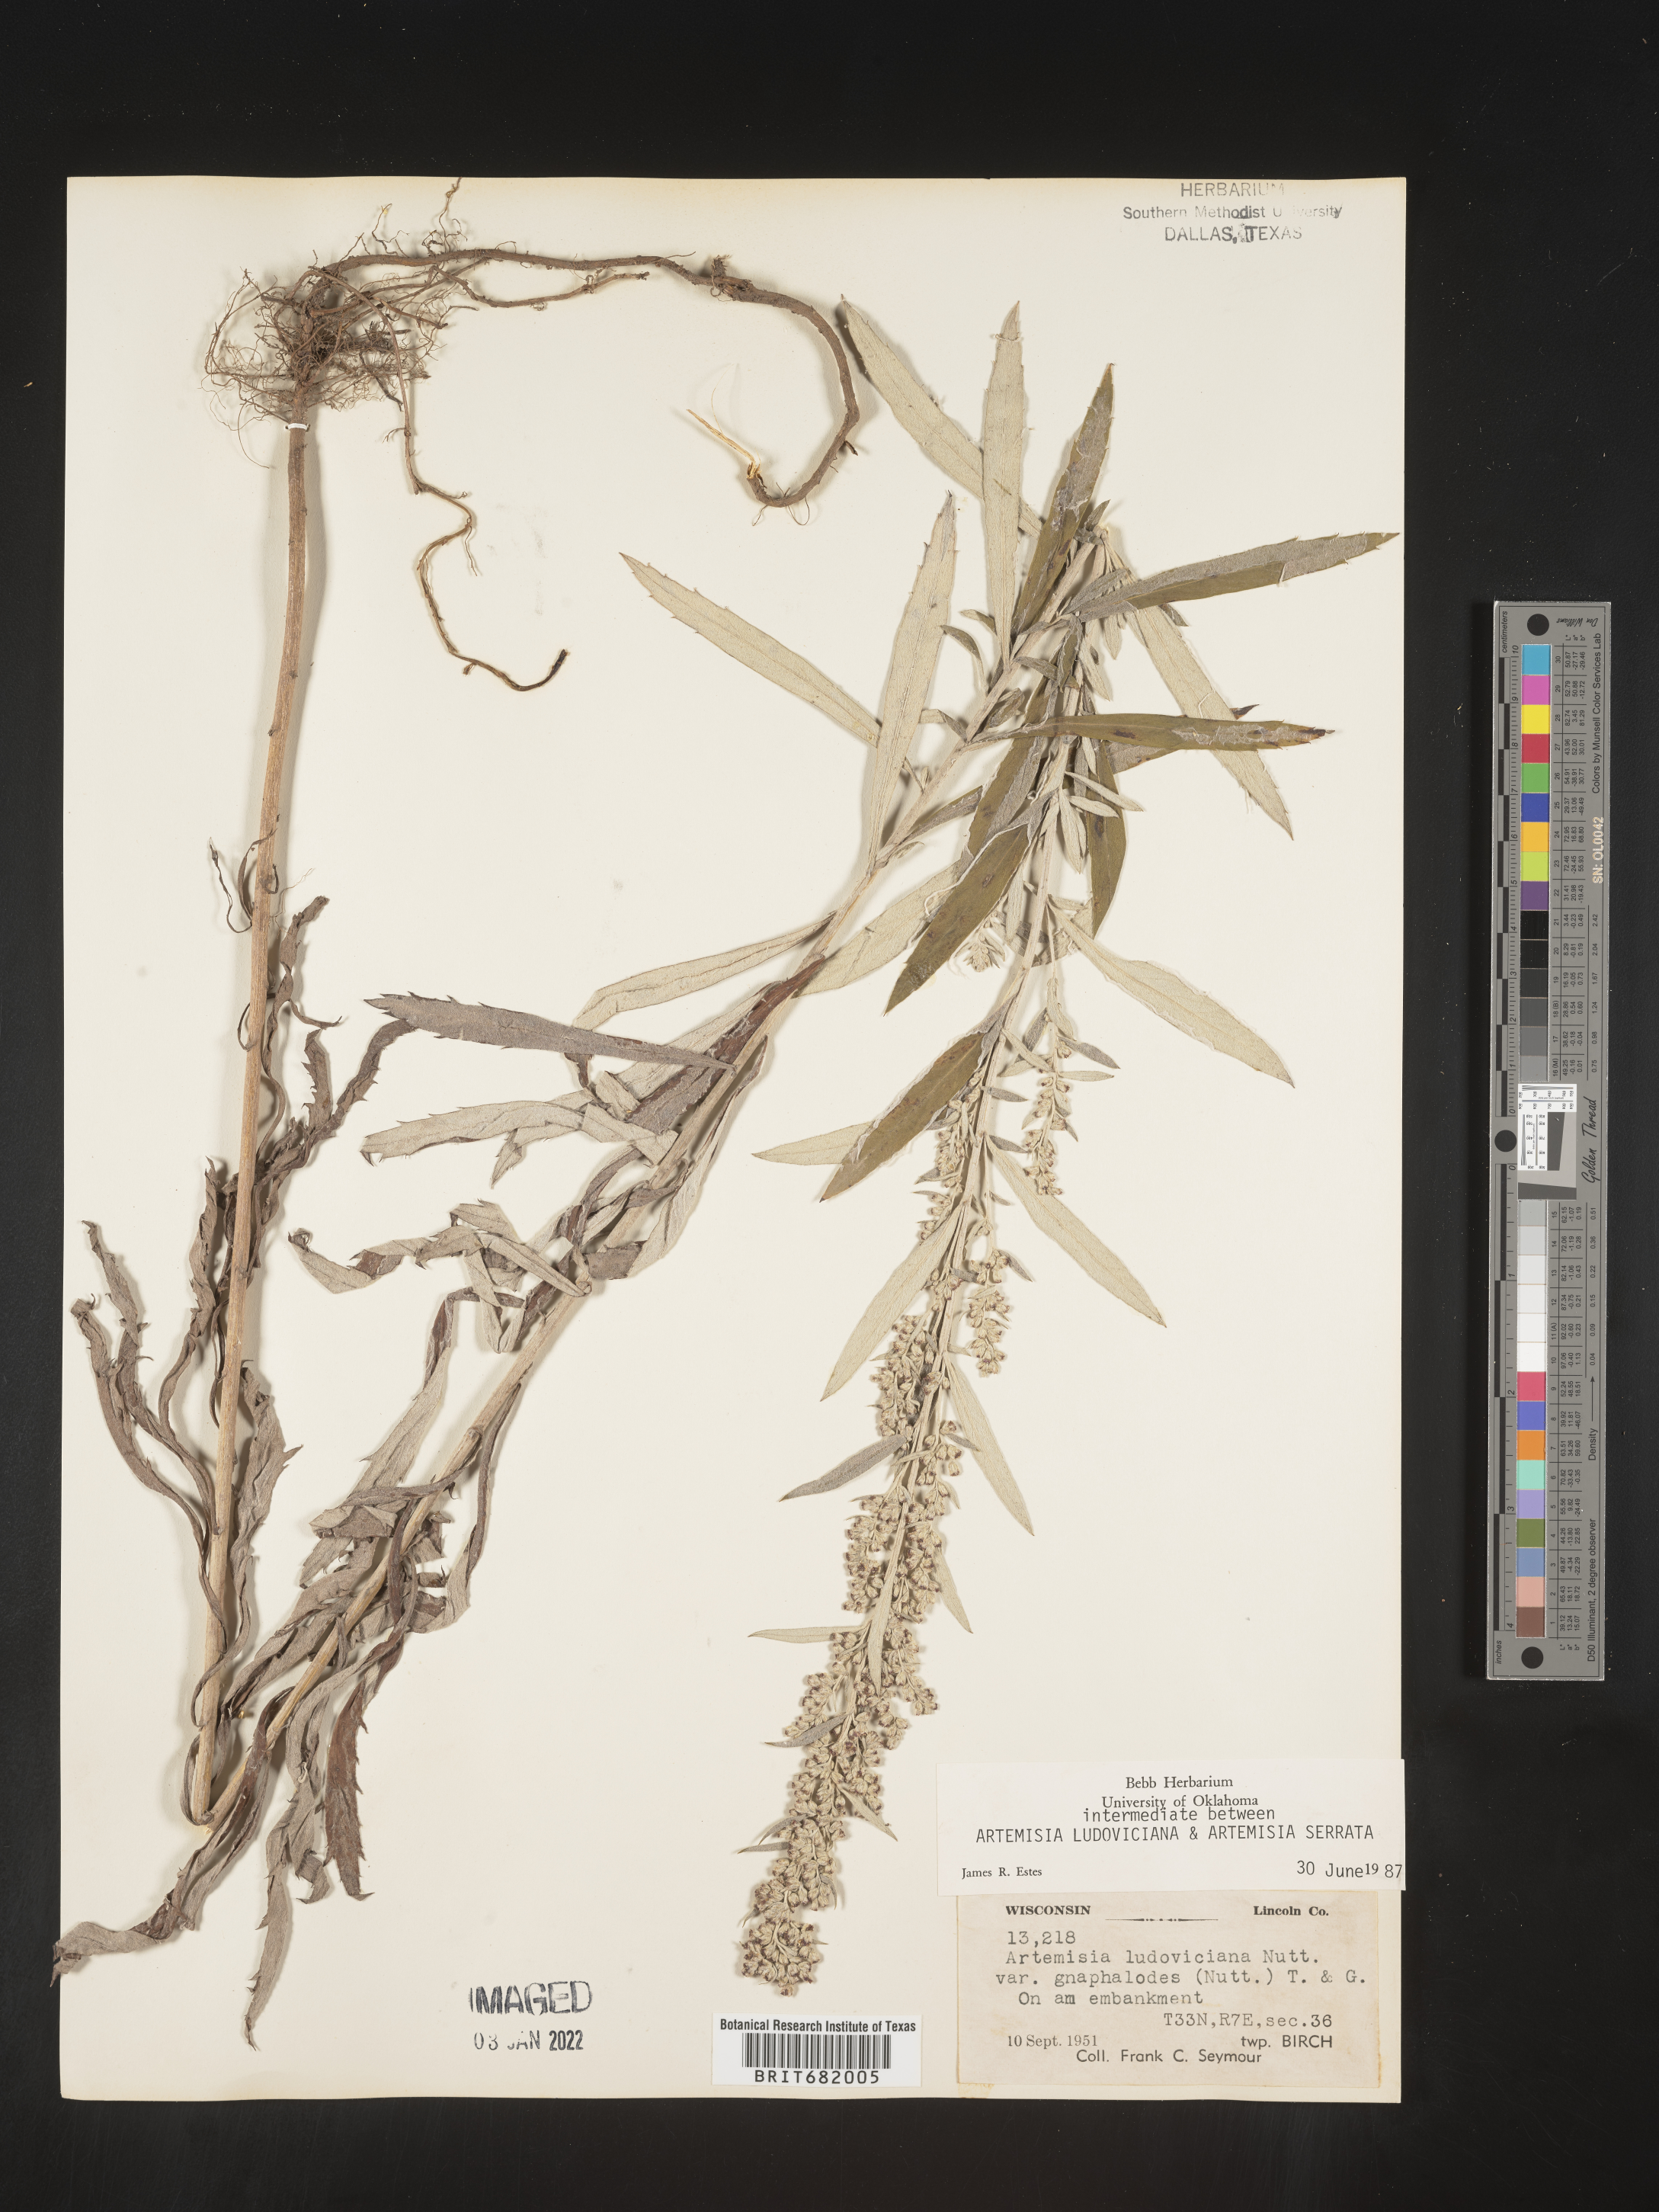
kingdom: Plantae
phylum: Tracheophyta
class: Magnoliopsida
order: Asterales
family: Asteraceae
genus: Artemisia
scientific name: Artemisia ludoviciana
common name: Western mugwort
